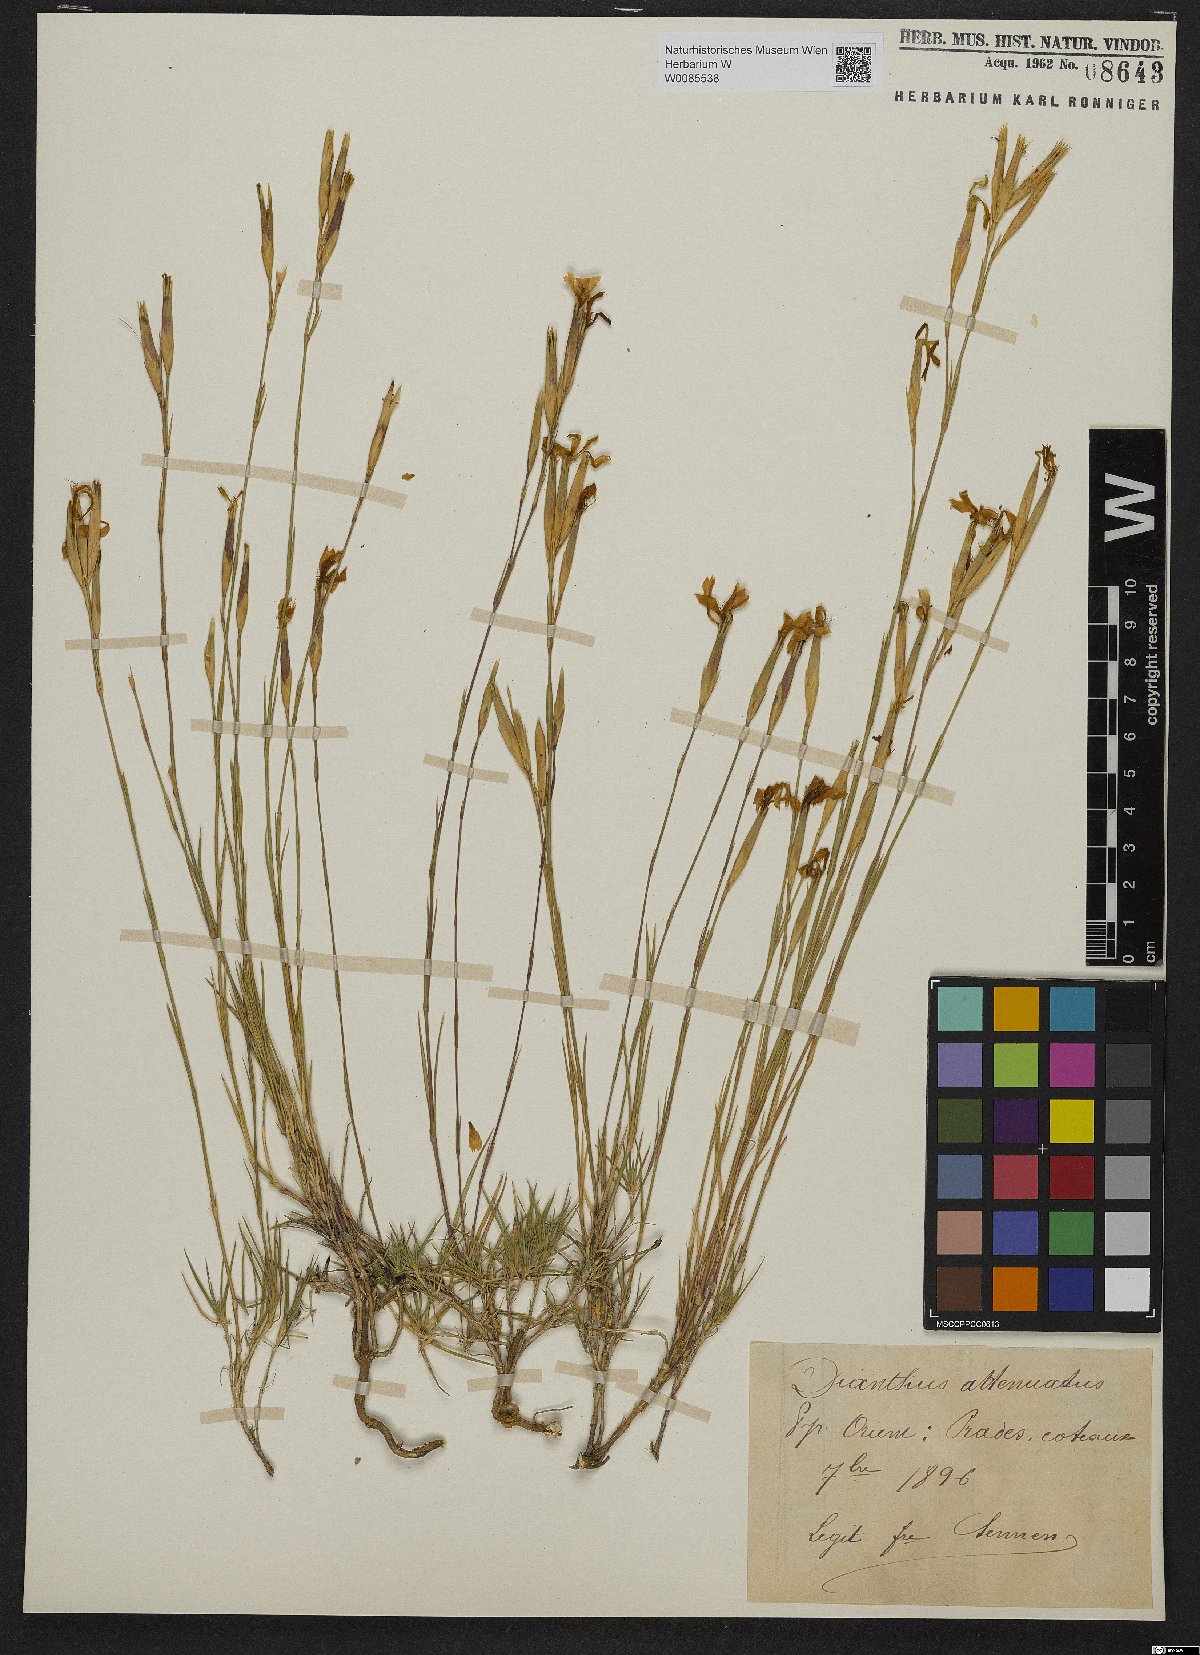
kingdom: Plantae
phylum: Tracheophyta
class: Magnoliopsida
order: Caryophyllales
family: Caryophyllaceae
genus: Dianthus
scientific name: Dianthus pyrenaicus
